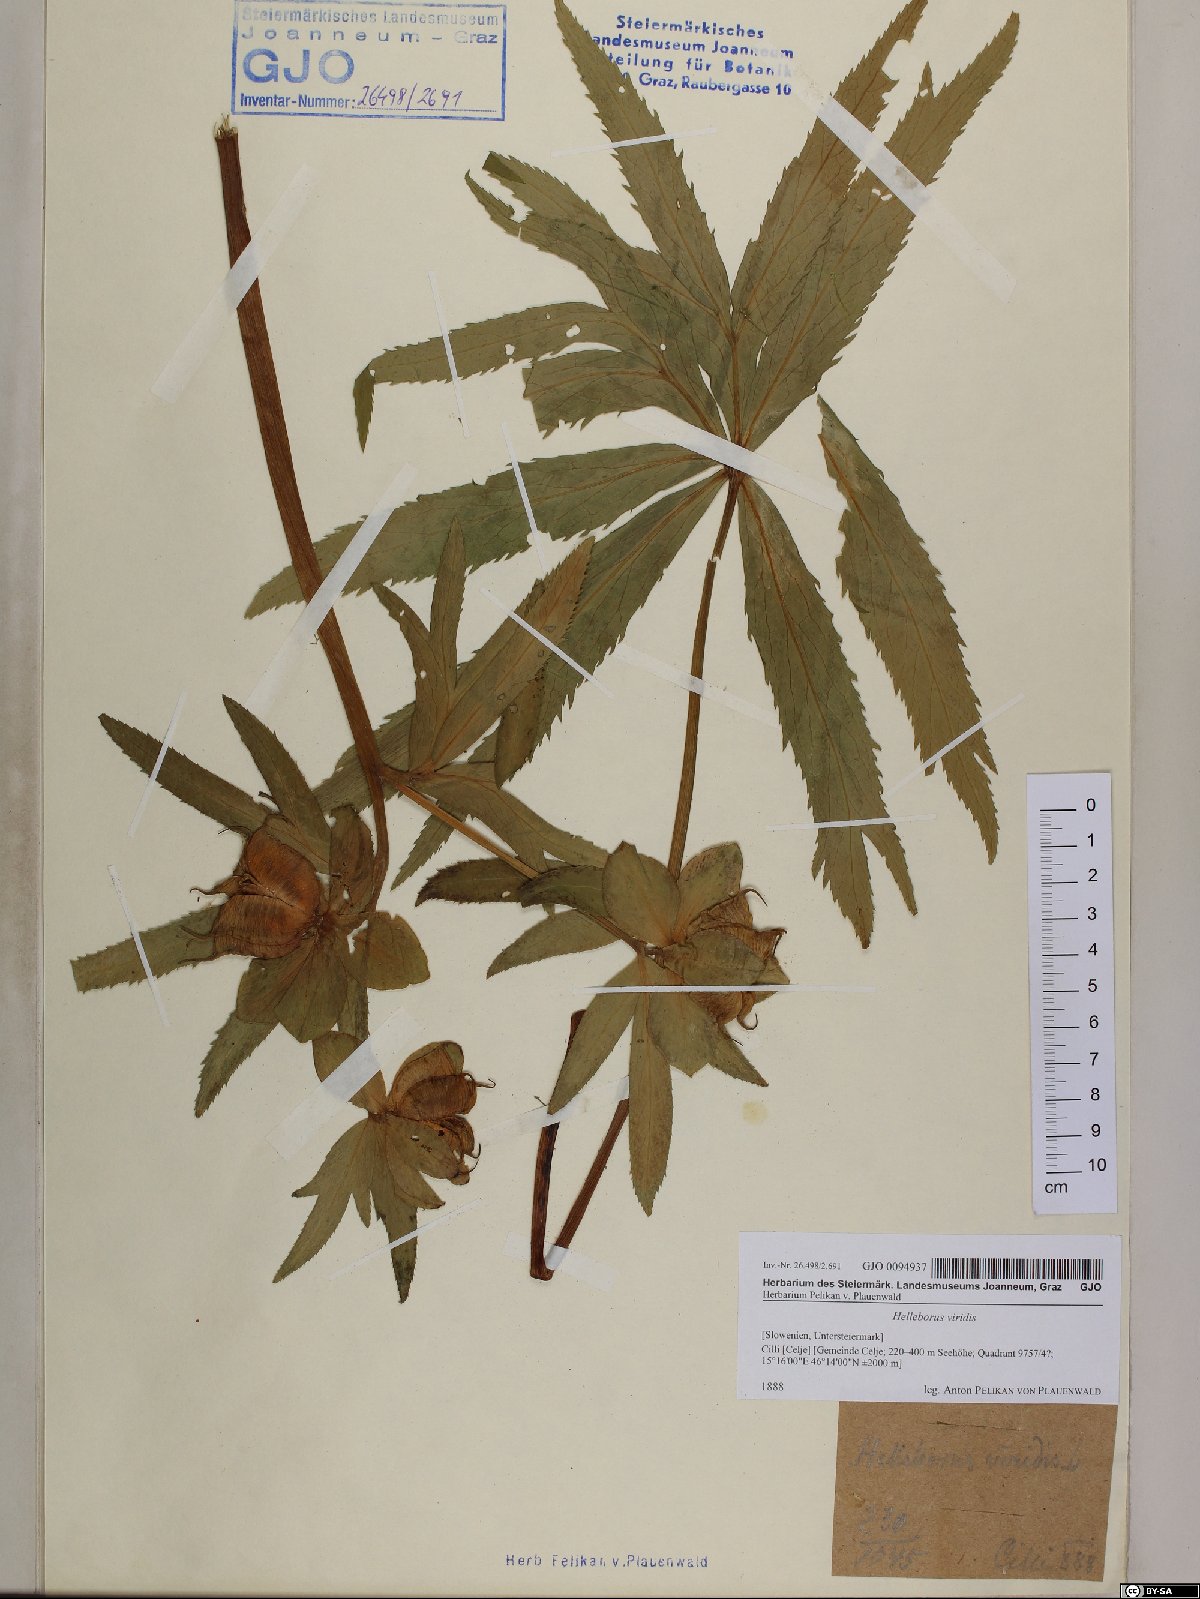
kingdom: Plantae
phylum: Tracheophyta
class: Magnoliopsida
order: Ranunculales
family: Ranunculaceae
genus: Helleborus
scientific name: Helleborus viridis
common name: Green hellebore
